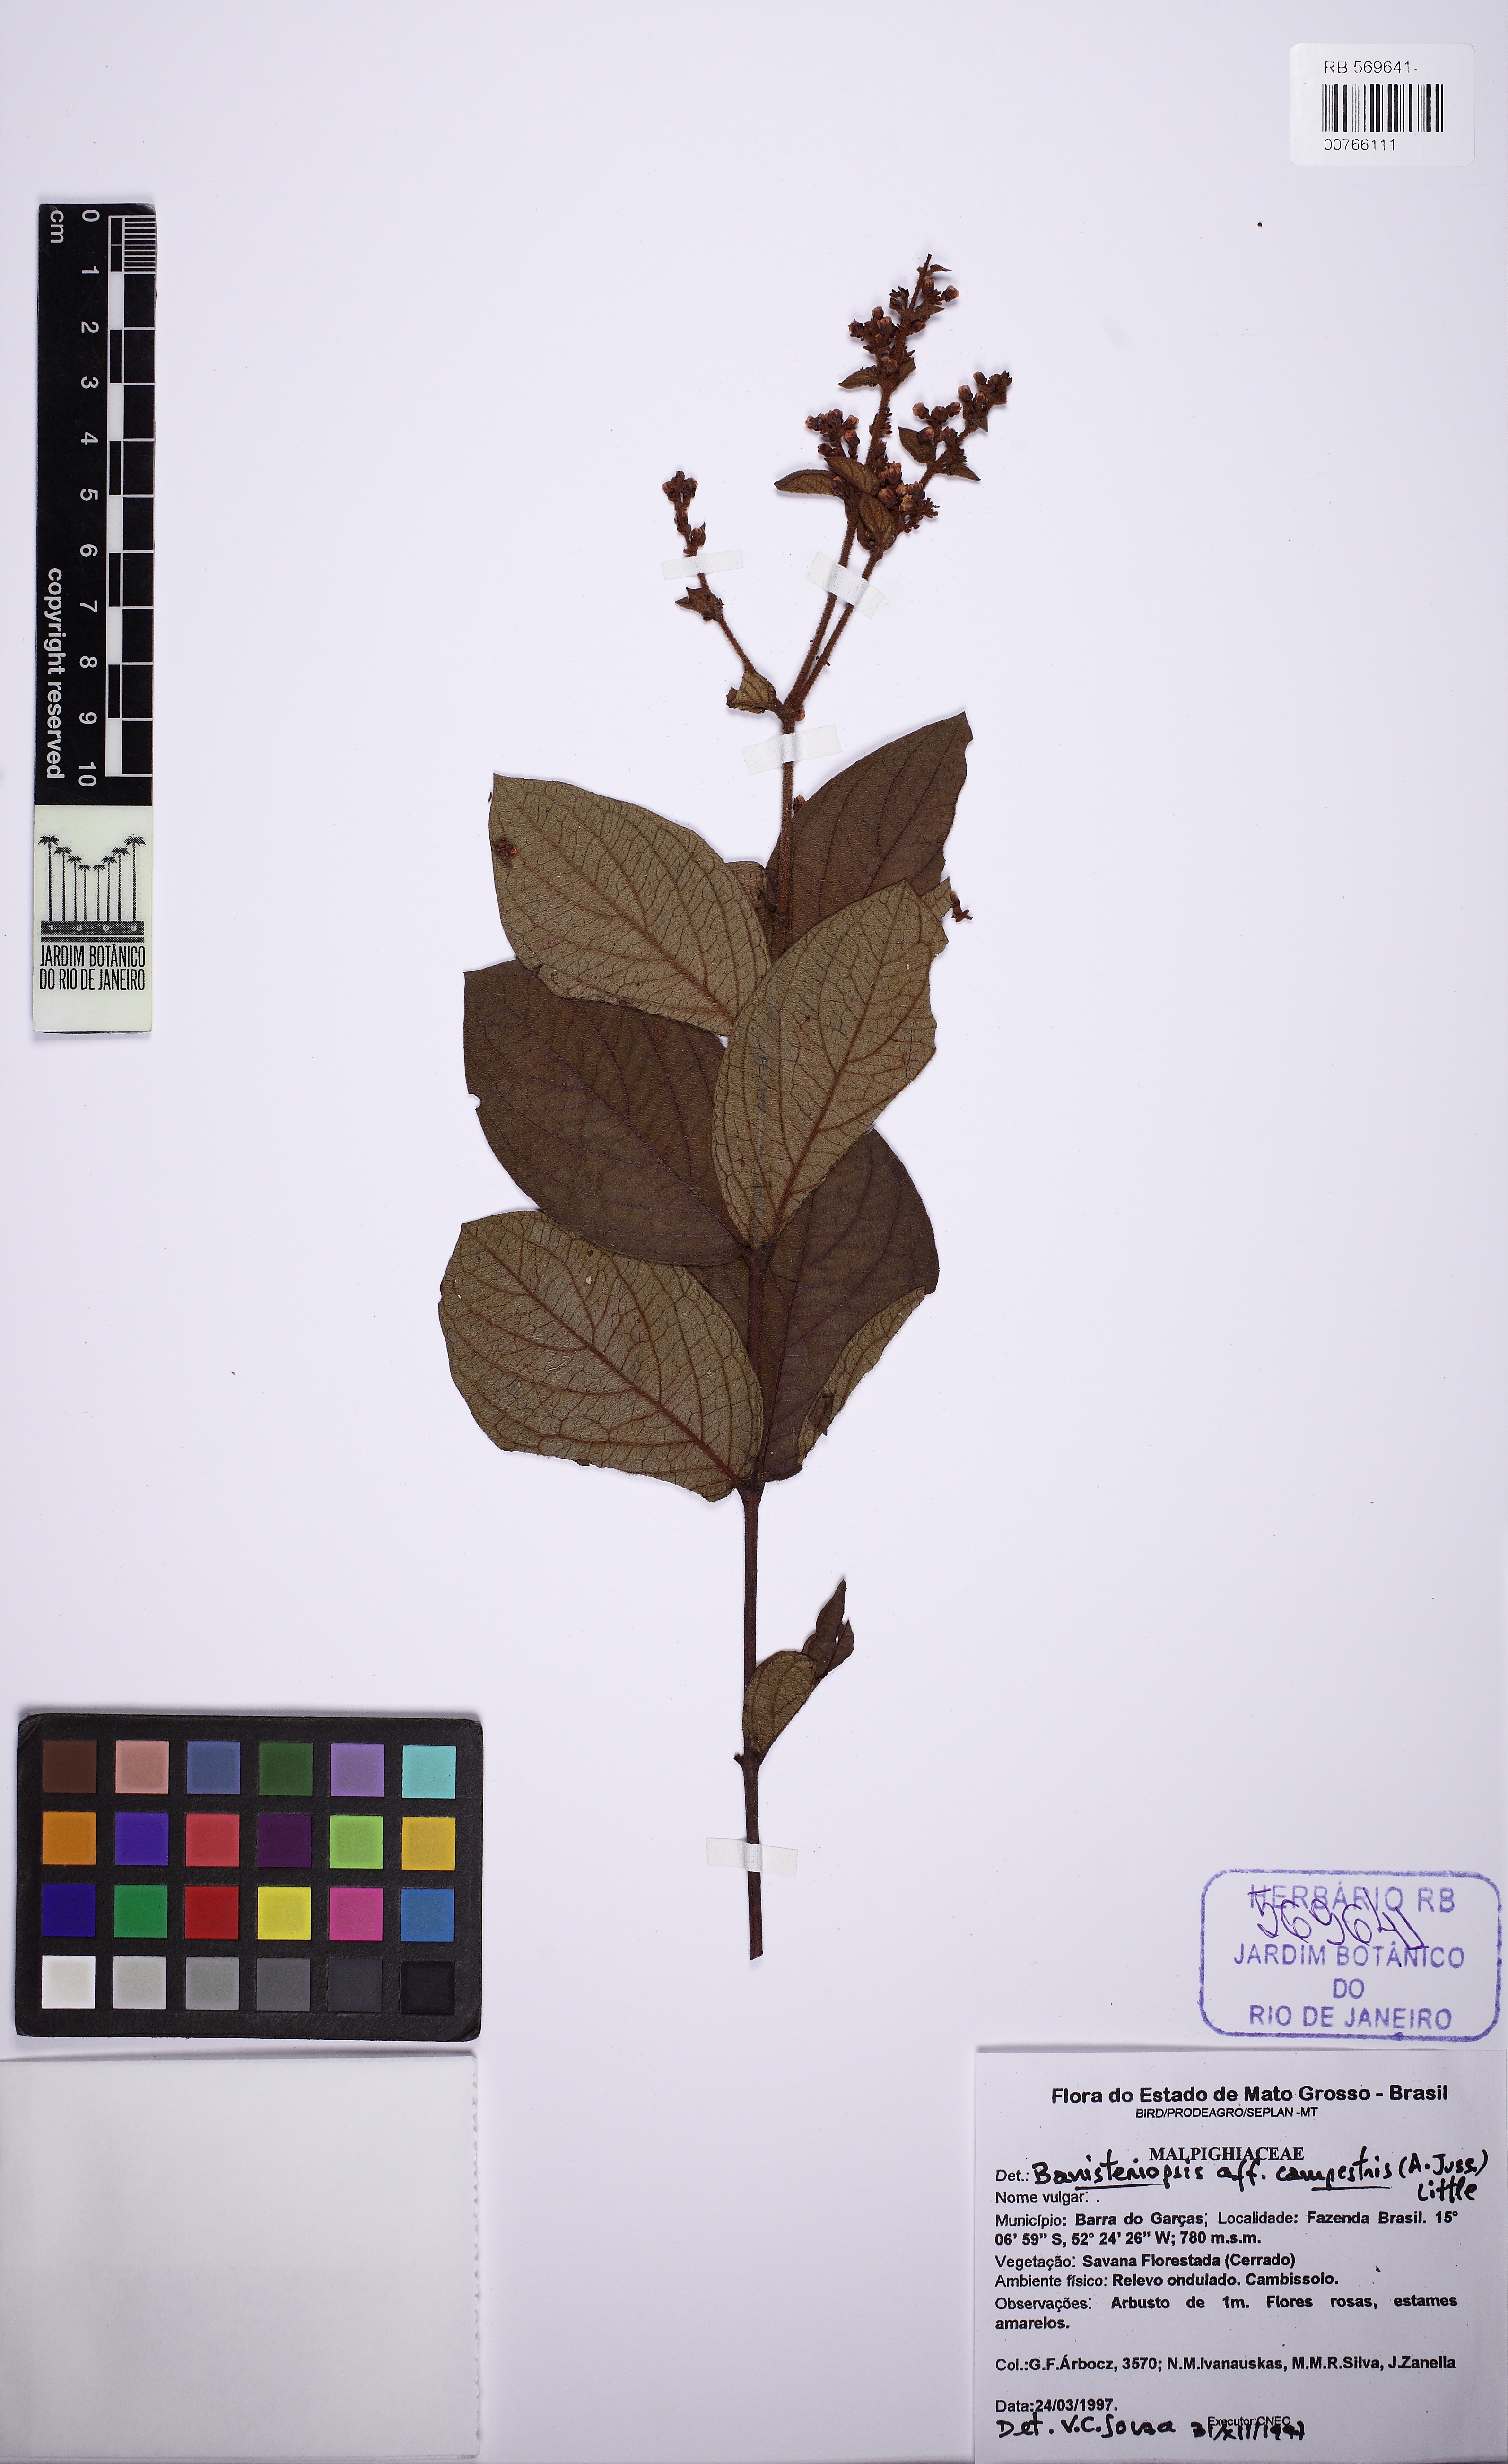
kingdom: Plantae
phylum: Tracheophyta
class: Magnoliopsida
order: Malpighiales
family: Malpighiaceae
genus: Banisteriopsis
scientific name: Banisteriopsis campestris
